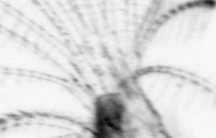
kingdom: Animalia
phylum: Chordata
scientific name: Chordata
